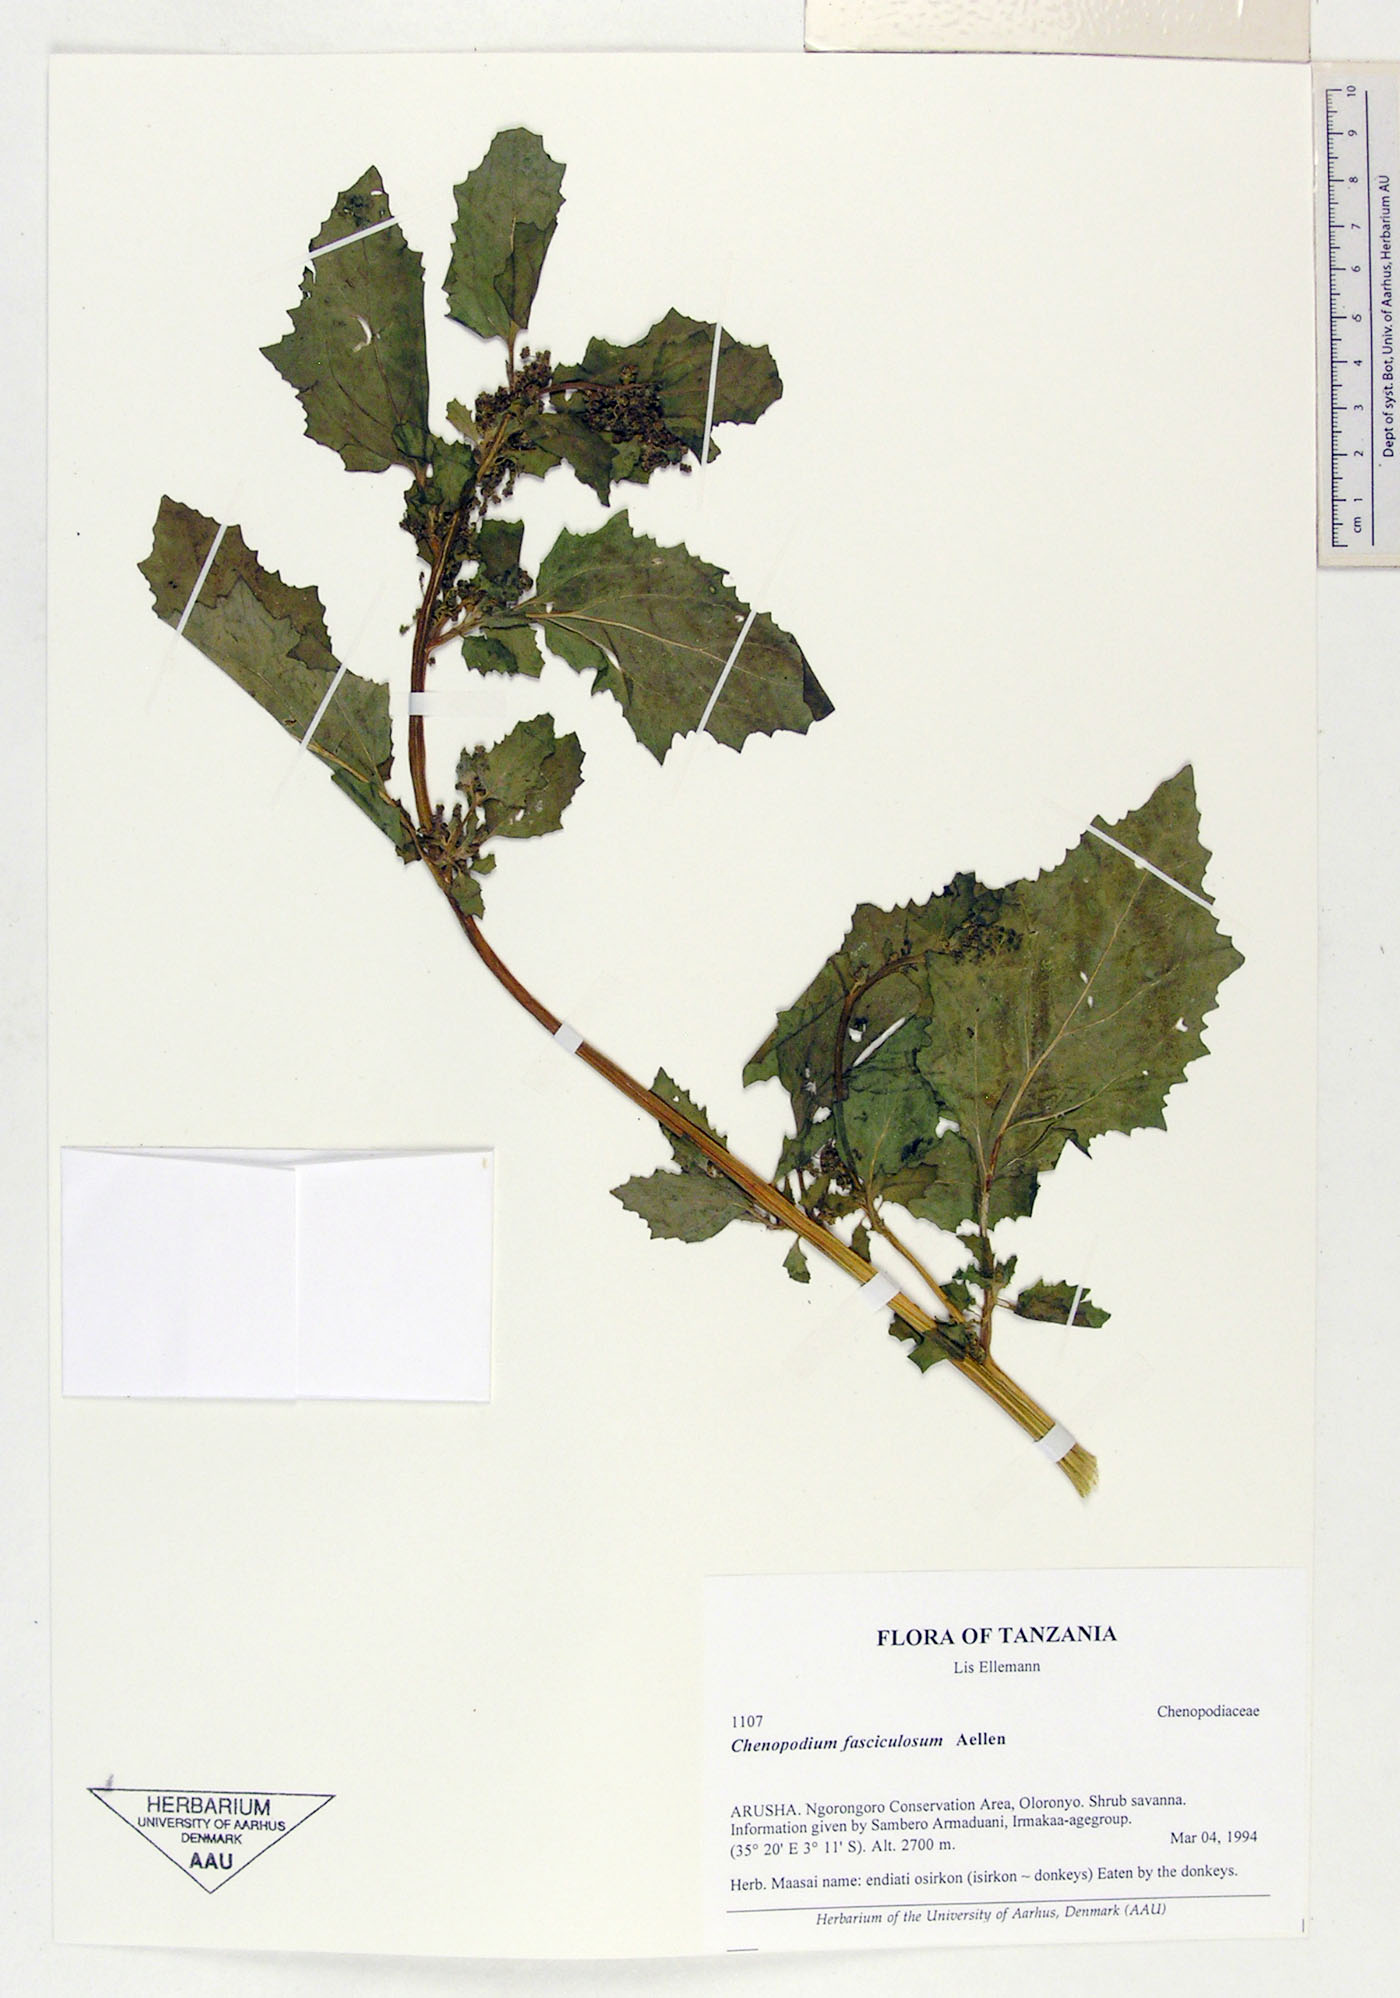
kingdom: Plantae
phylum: Tracheophyta
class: Magnoliopsida
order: Caryophyllales
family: Amaranthaceae
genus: Chenopodiastrum
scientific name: Chenopodiastrum fasciculosum
